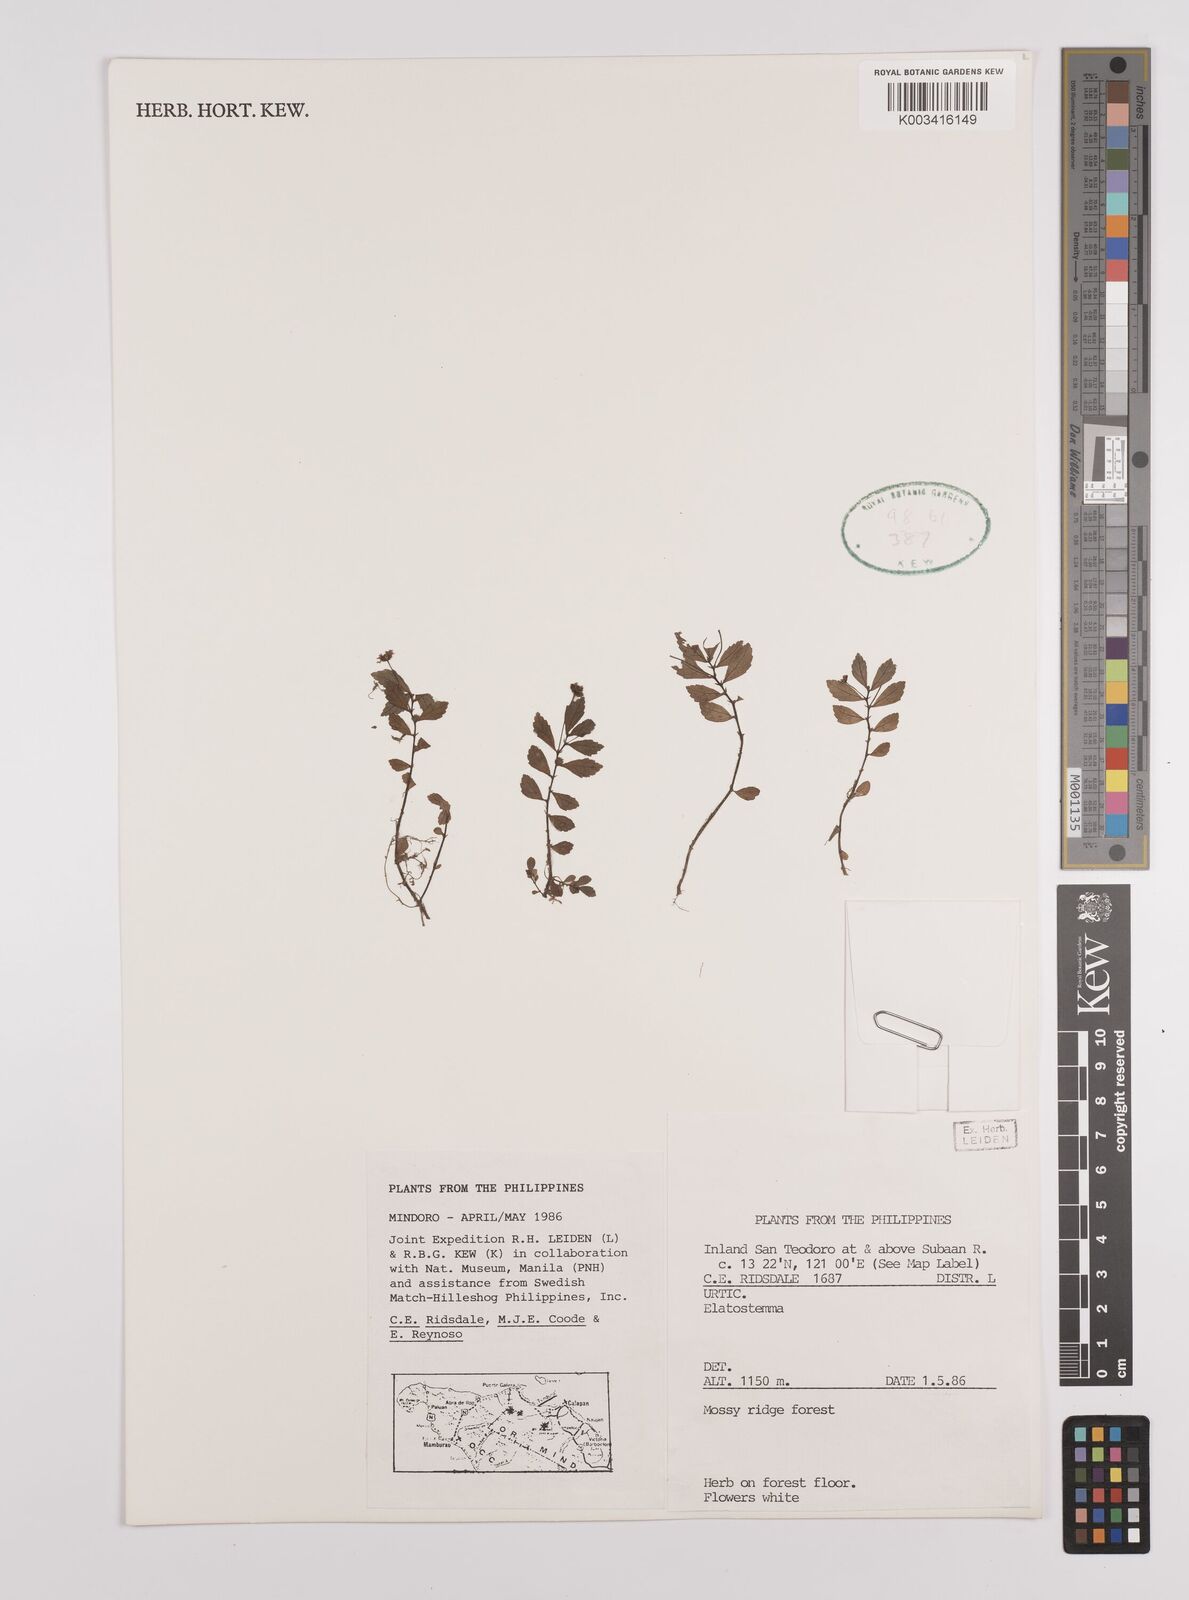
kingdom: Plantae
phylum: Tracheophyta
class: Magnoliopsida
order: Rosales
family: Urticaceae
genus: Elatostema
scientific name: Elatostema
